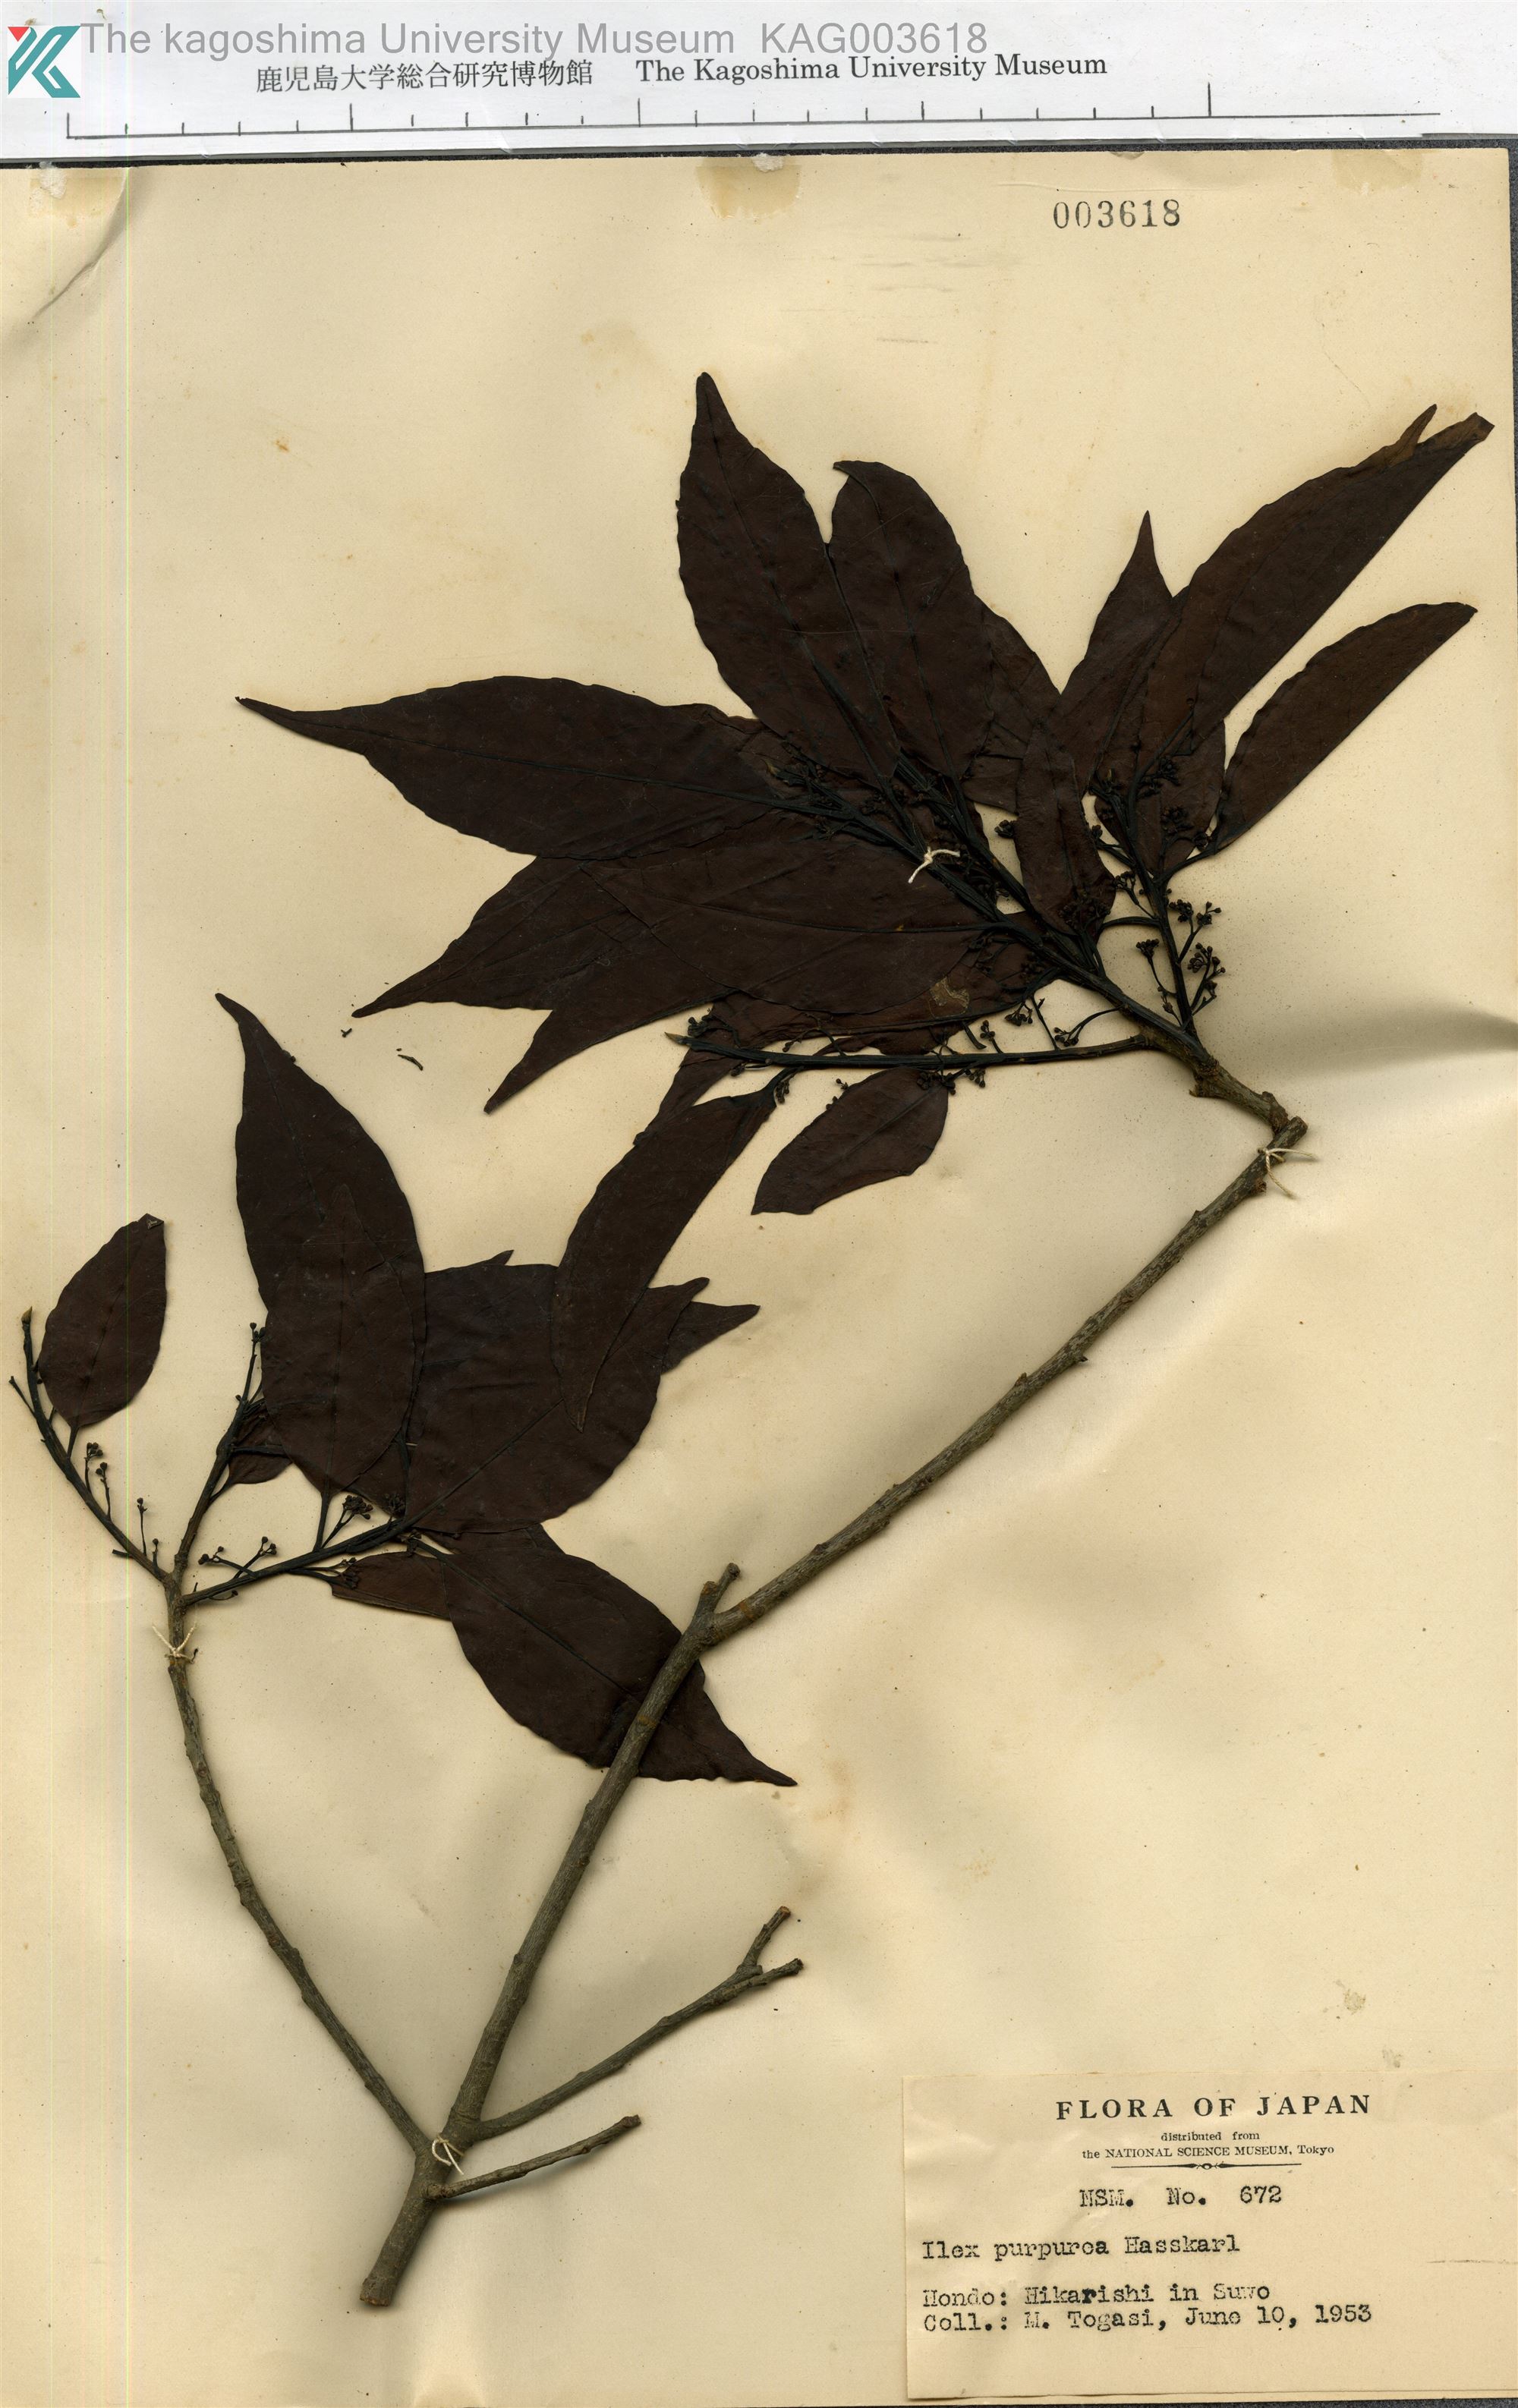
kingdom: Plantae
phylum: Tracheophyta
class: Magnoliopsida
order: Aquifoliales
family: Aquifoliaceae
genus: Ilex
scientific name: Ilex chinensis
